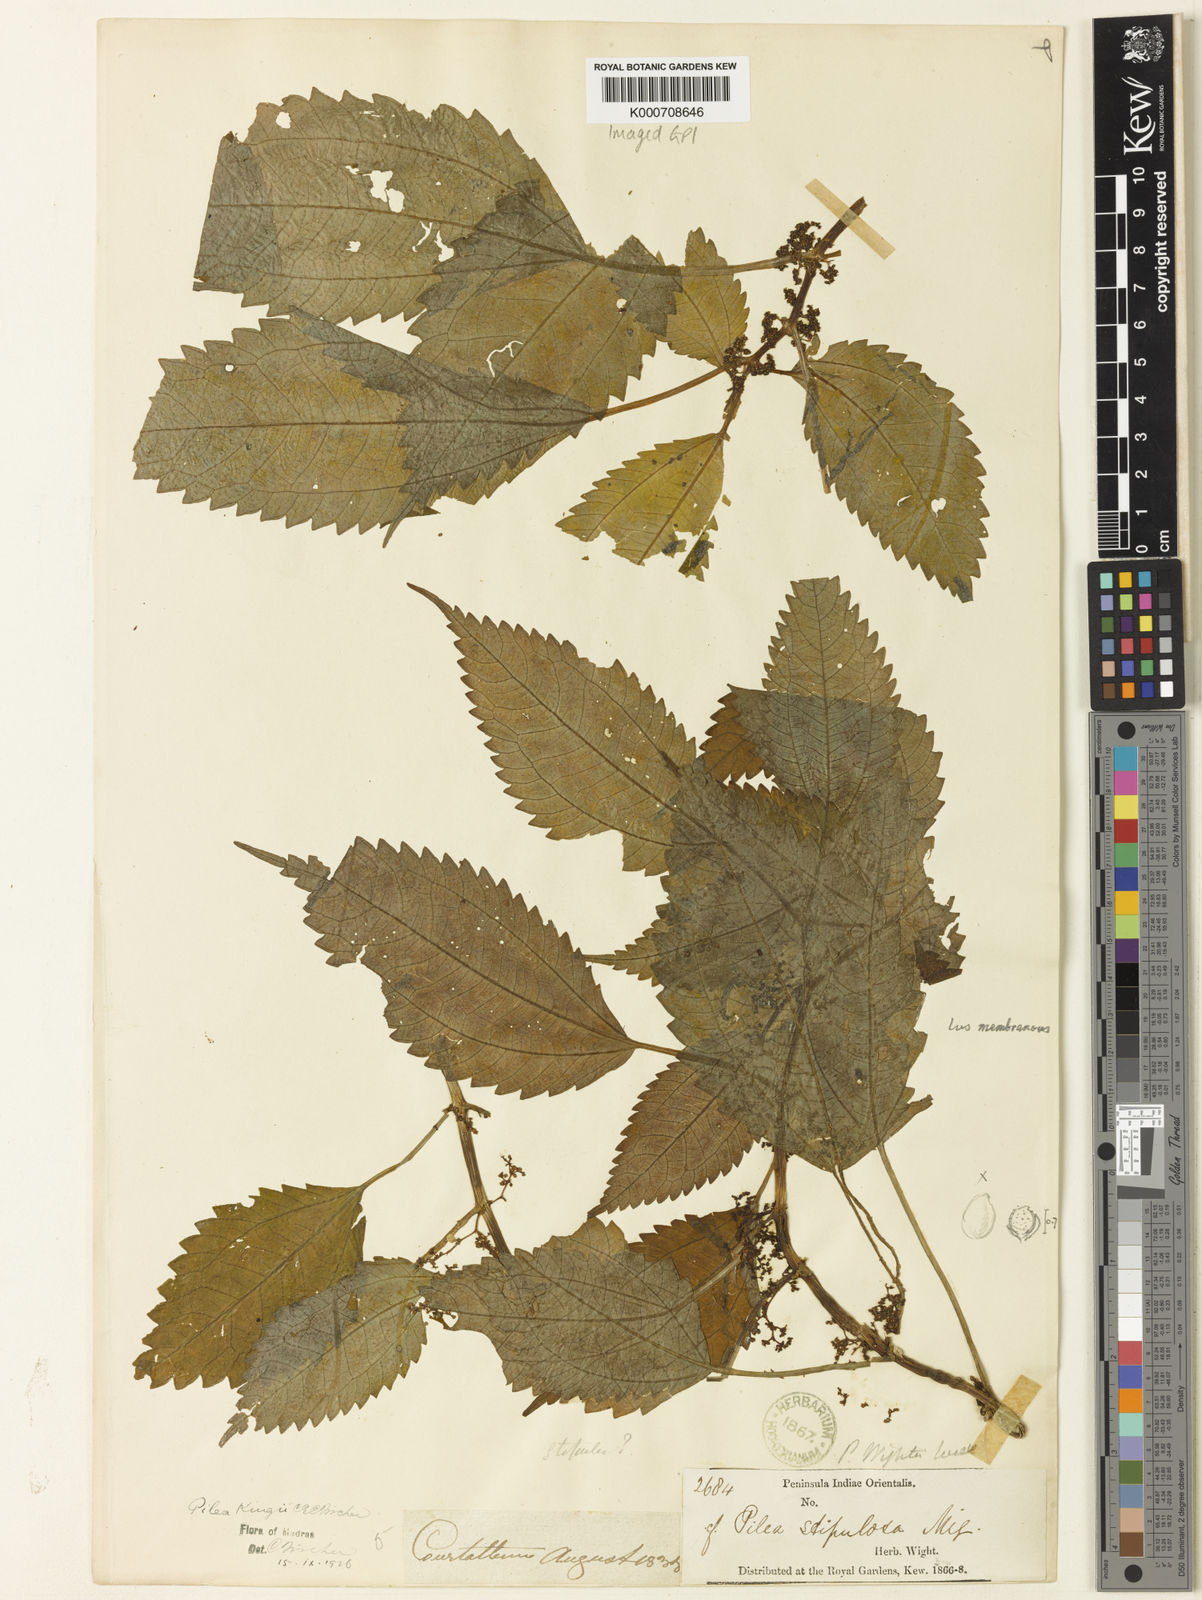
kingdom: Plantae
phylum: Tracheophyta
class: Magnoliopsida
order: Rosales
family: Urticaceae
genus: Pilea
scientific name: Pilea obesa
